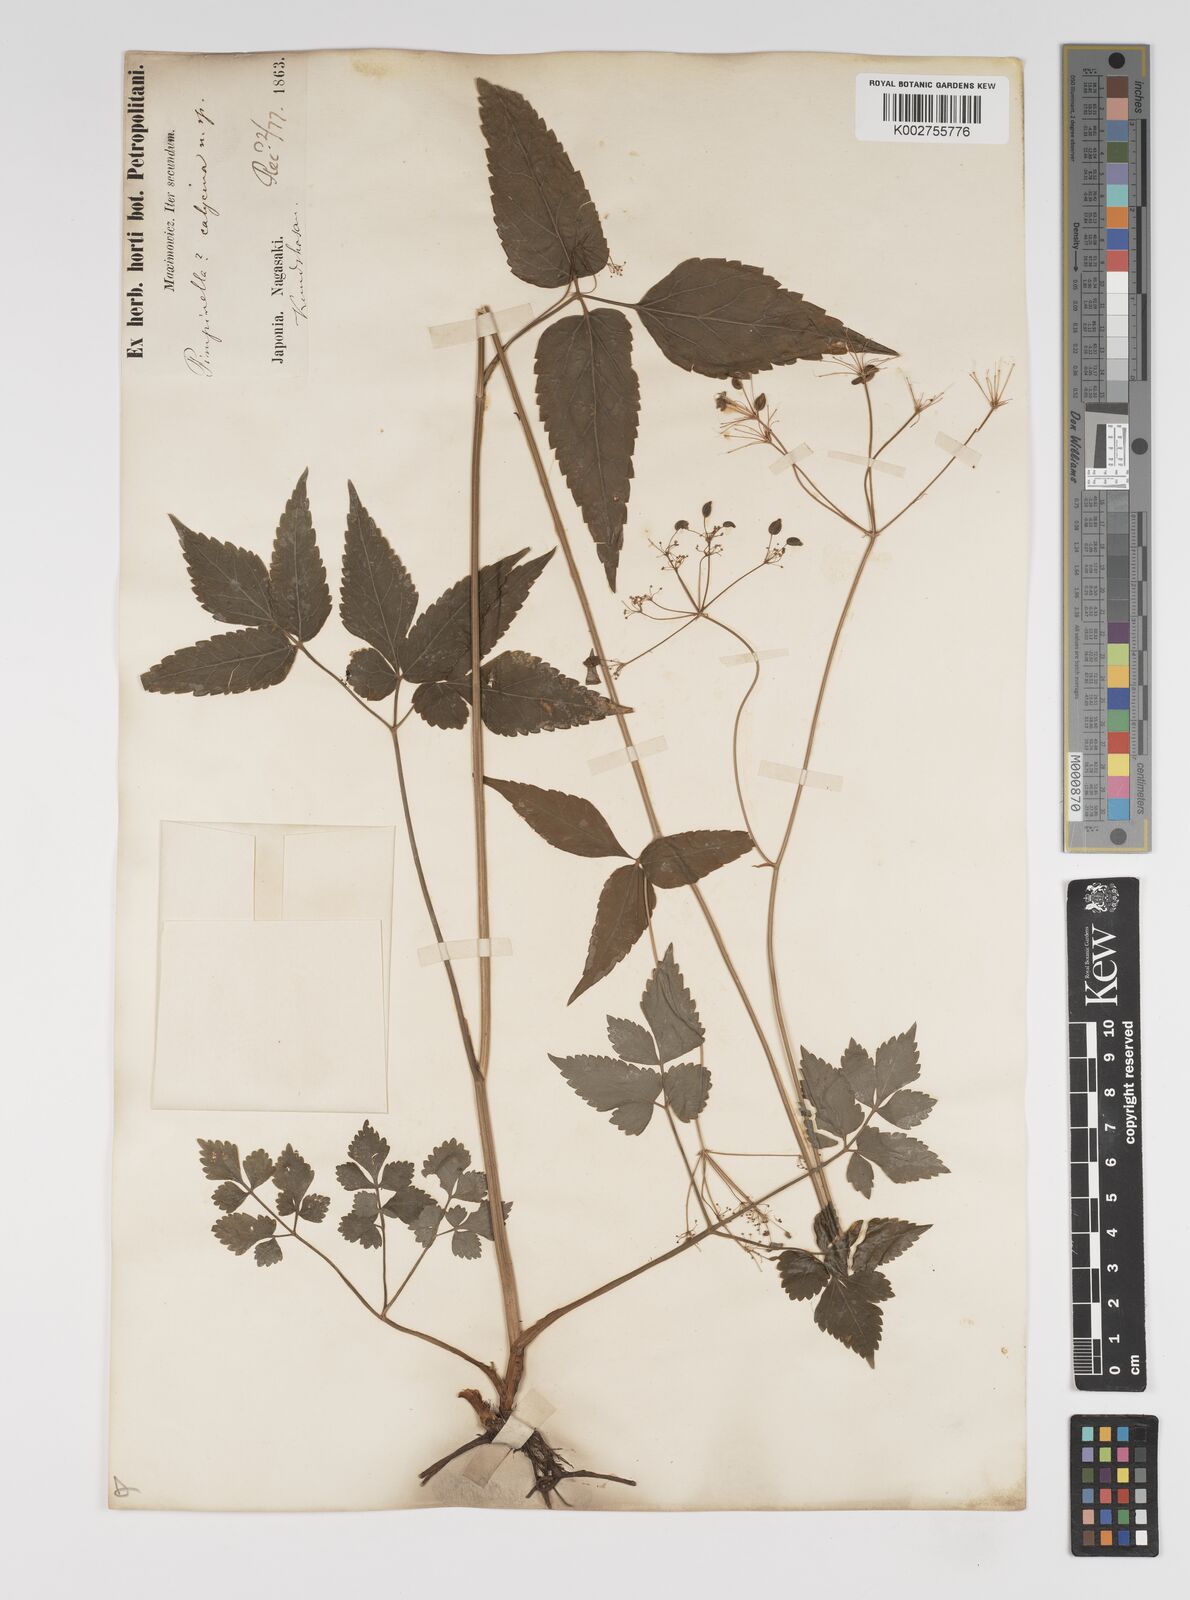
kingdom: Plantae
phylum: Tracheophyta
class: Magnoliopsida
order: Apiales
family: Apiaceae
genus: Spuriopimpinella
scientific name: Spuriopimpinella calycina
